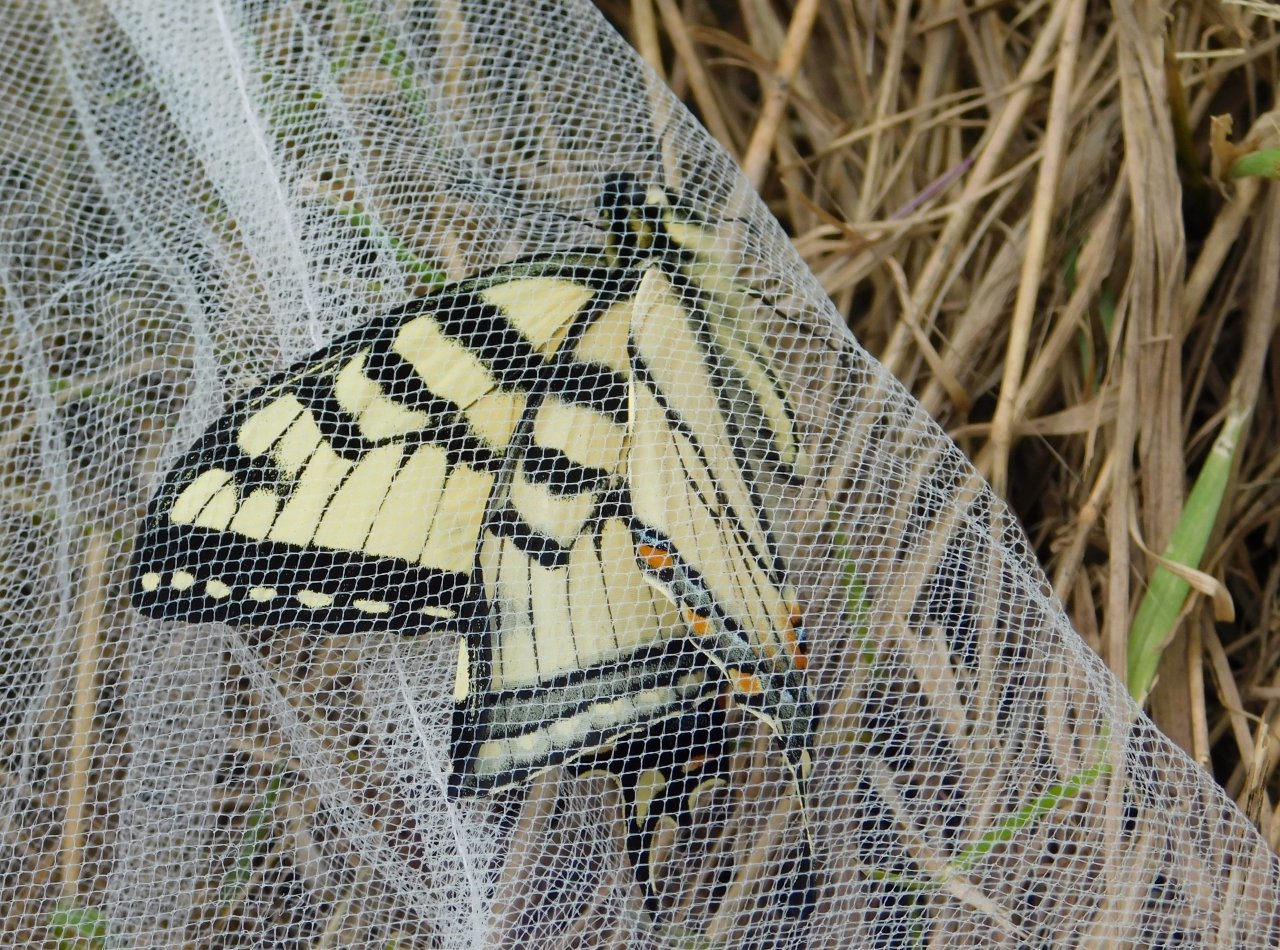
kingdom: Animalia
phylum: Arthropoda
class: Insecta
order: Lepidoptera
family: Papilionidae
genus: Pterourus
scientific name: Pterourus canadensis
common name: Canadian Tiger Swallowtail
